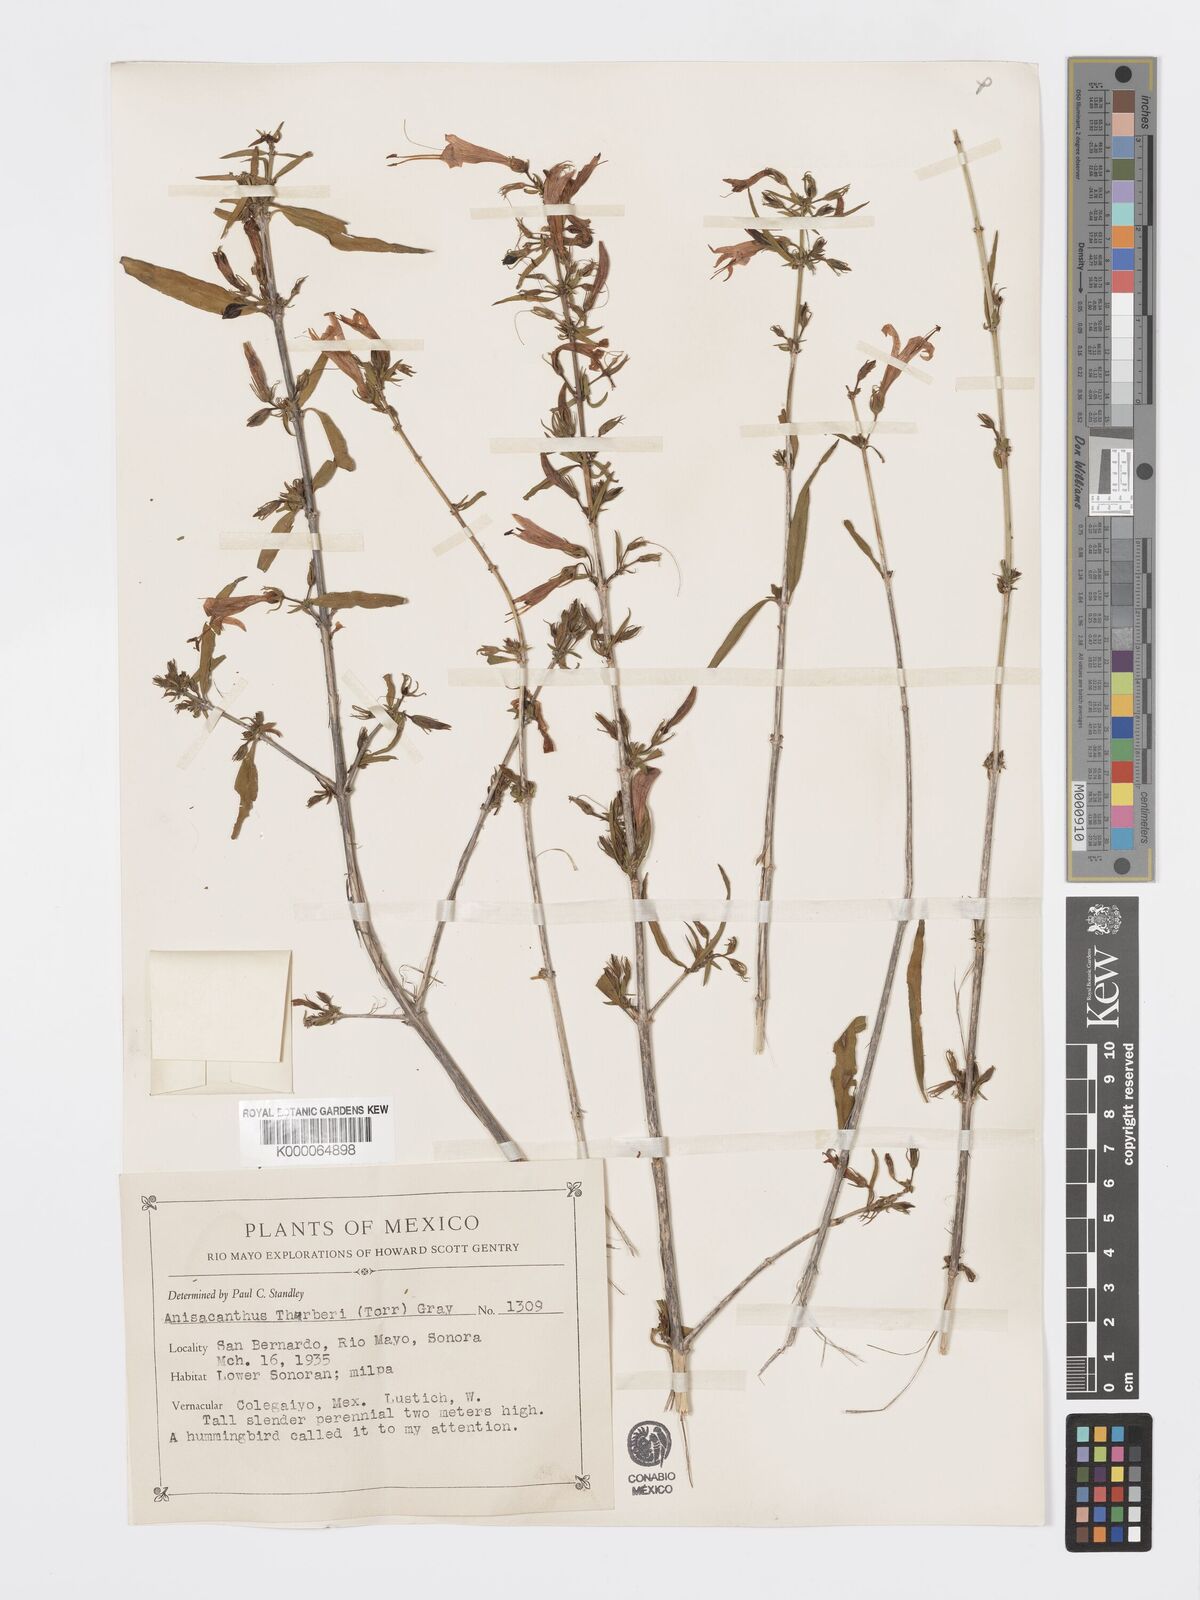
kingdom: Plantae
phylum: Tracheophyta
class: Magnoliopsida
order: Lamiales
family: Acanthaceae
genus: Anisacanthus
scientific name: Anisacanthus thurberi
